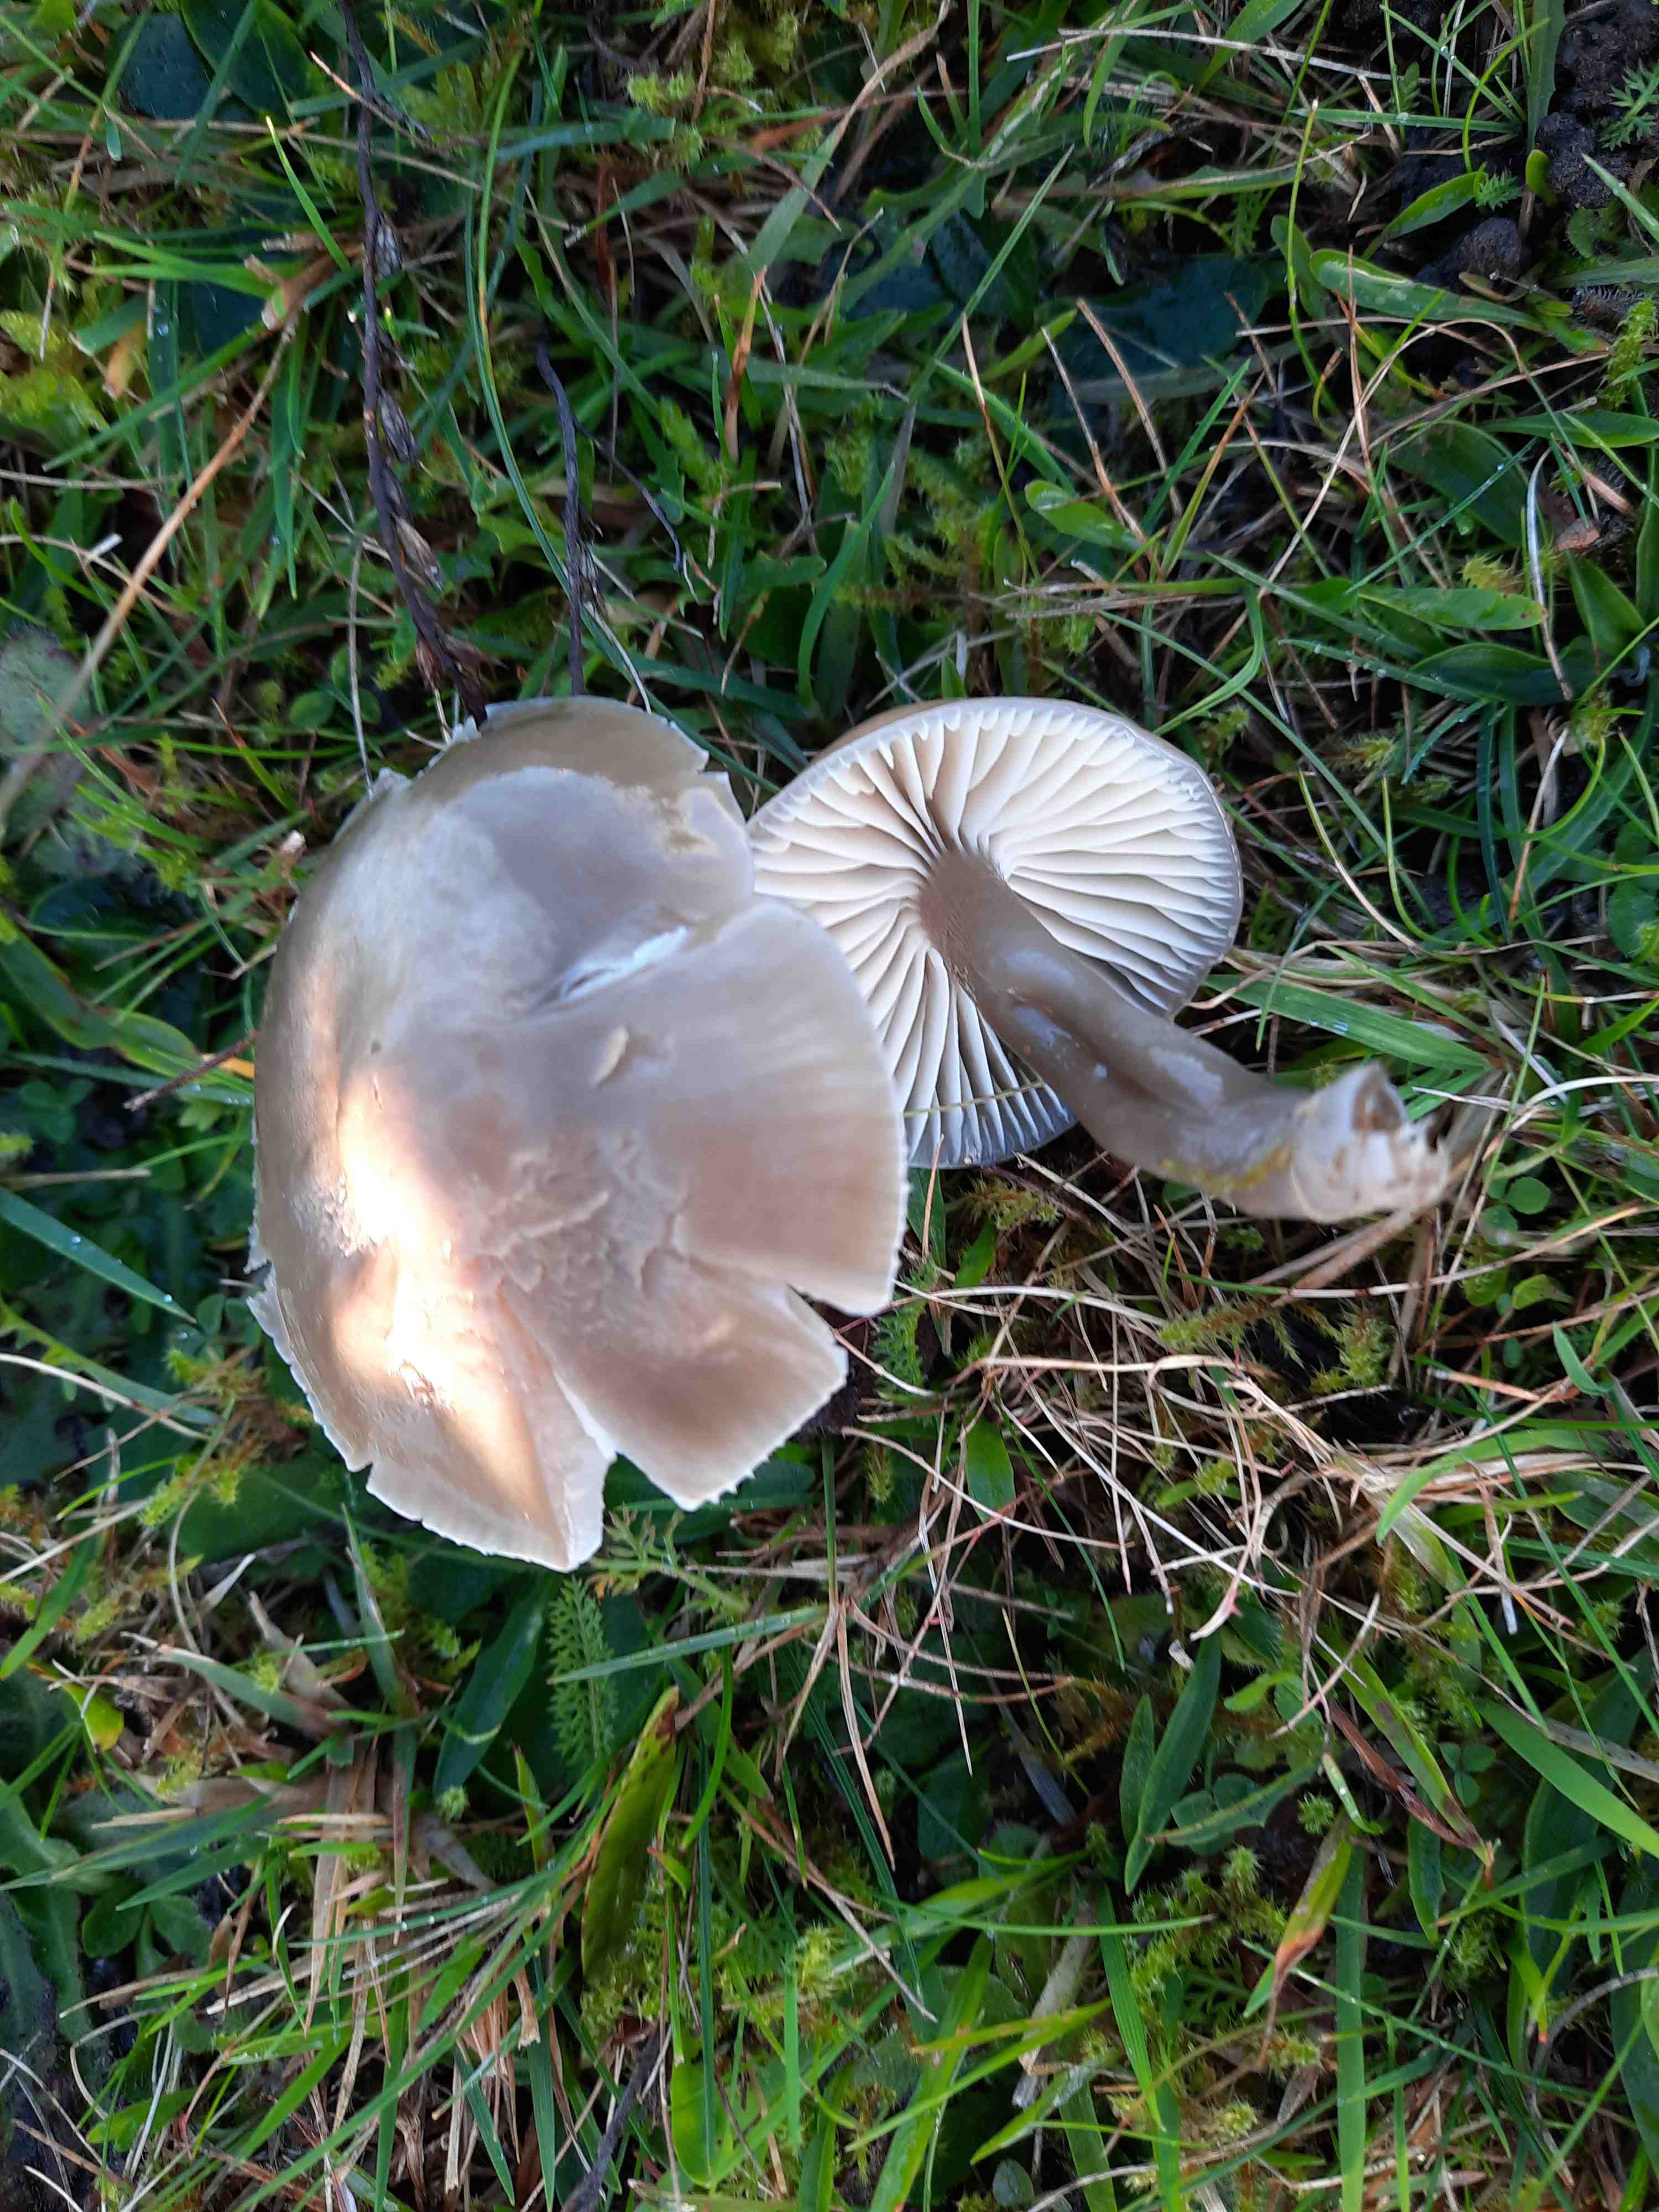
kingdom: Fungi
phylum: Basidiomycota
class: Agaricomycetes
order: Agaricales
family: Hygrophoraceae
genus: Gliophorus
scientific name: Gliophorus irrigatus
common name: slimet vokshat
